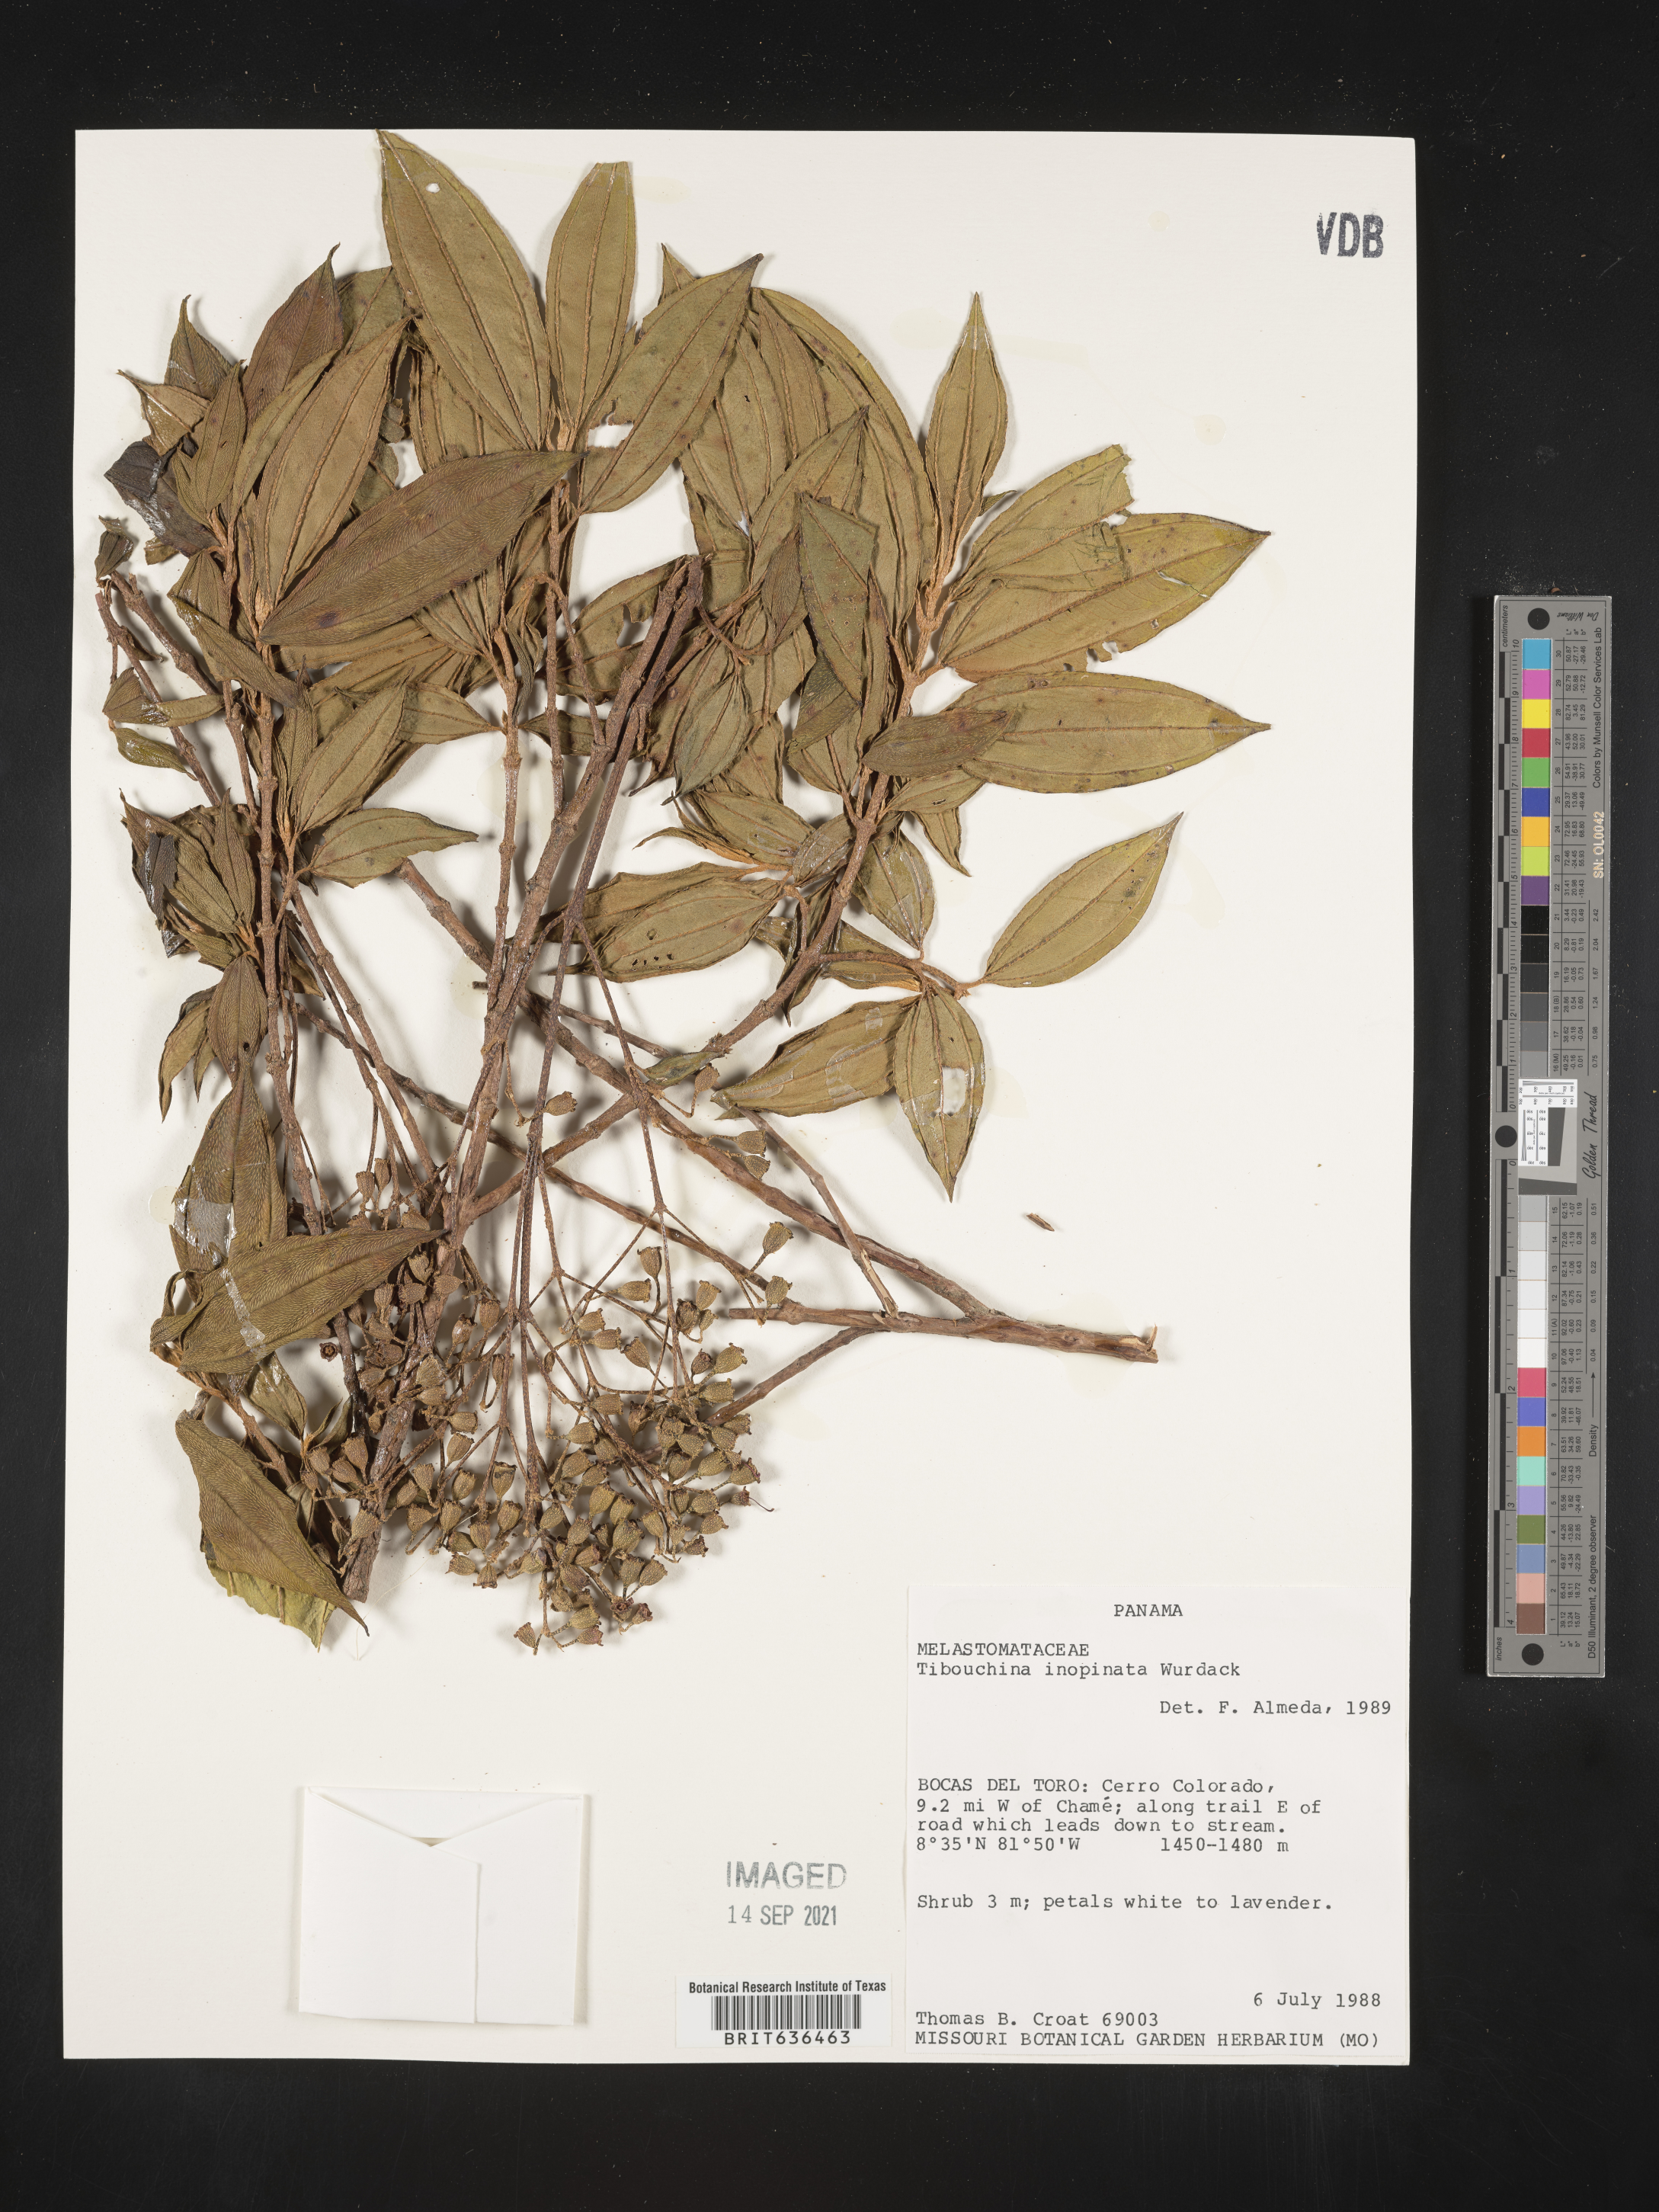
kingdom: Plantae
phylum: Tracheophyta
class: Magnoliopsida
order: Myrtales
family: Melastomataceae
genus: Tibouchina
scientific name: Tibouchina
